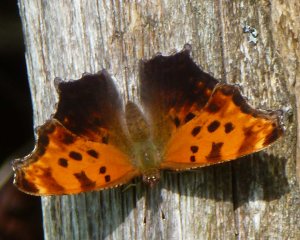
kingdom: Animalia
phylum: Arthropoda
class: Insecta
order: Lepidoptera
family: Nymphalidae
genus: Polygonia
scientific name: Polygonia comma
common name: Eastern Comma
